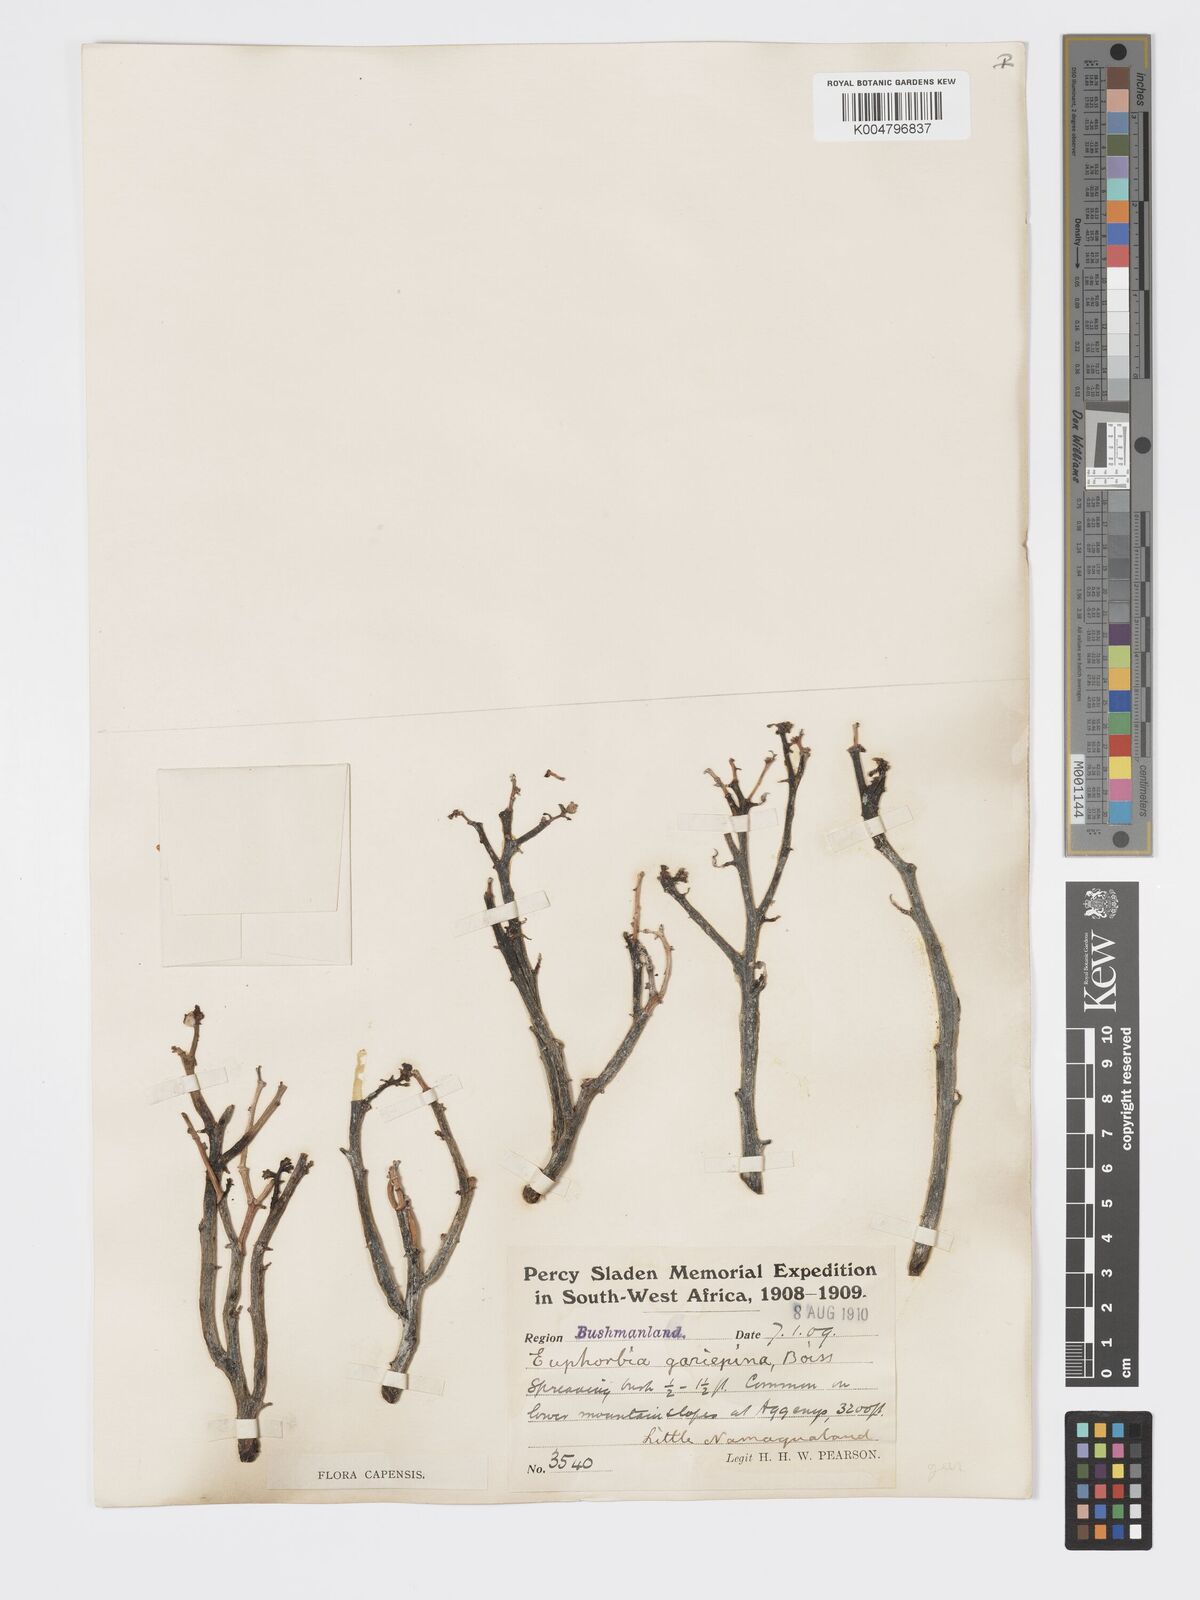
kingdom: Plantae
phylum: Tracheophyta
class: Magnoliopsida
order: Malpighiales
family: Euphorbiaceae
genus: Euphorbia
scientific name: Euphorbia gariepina
